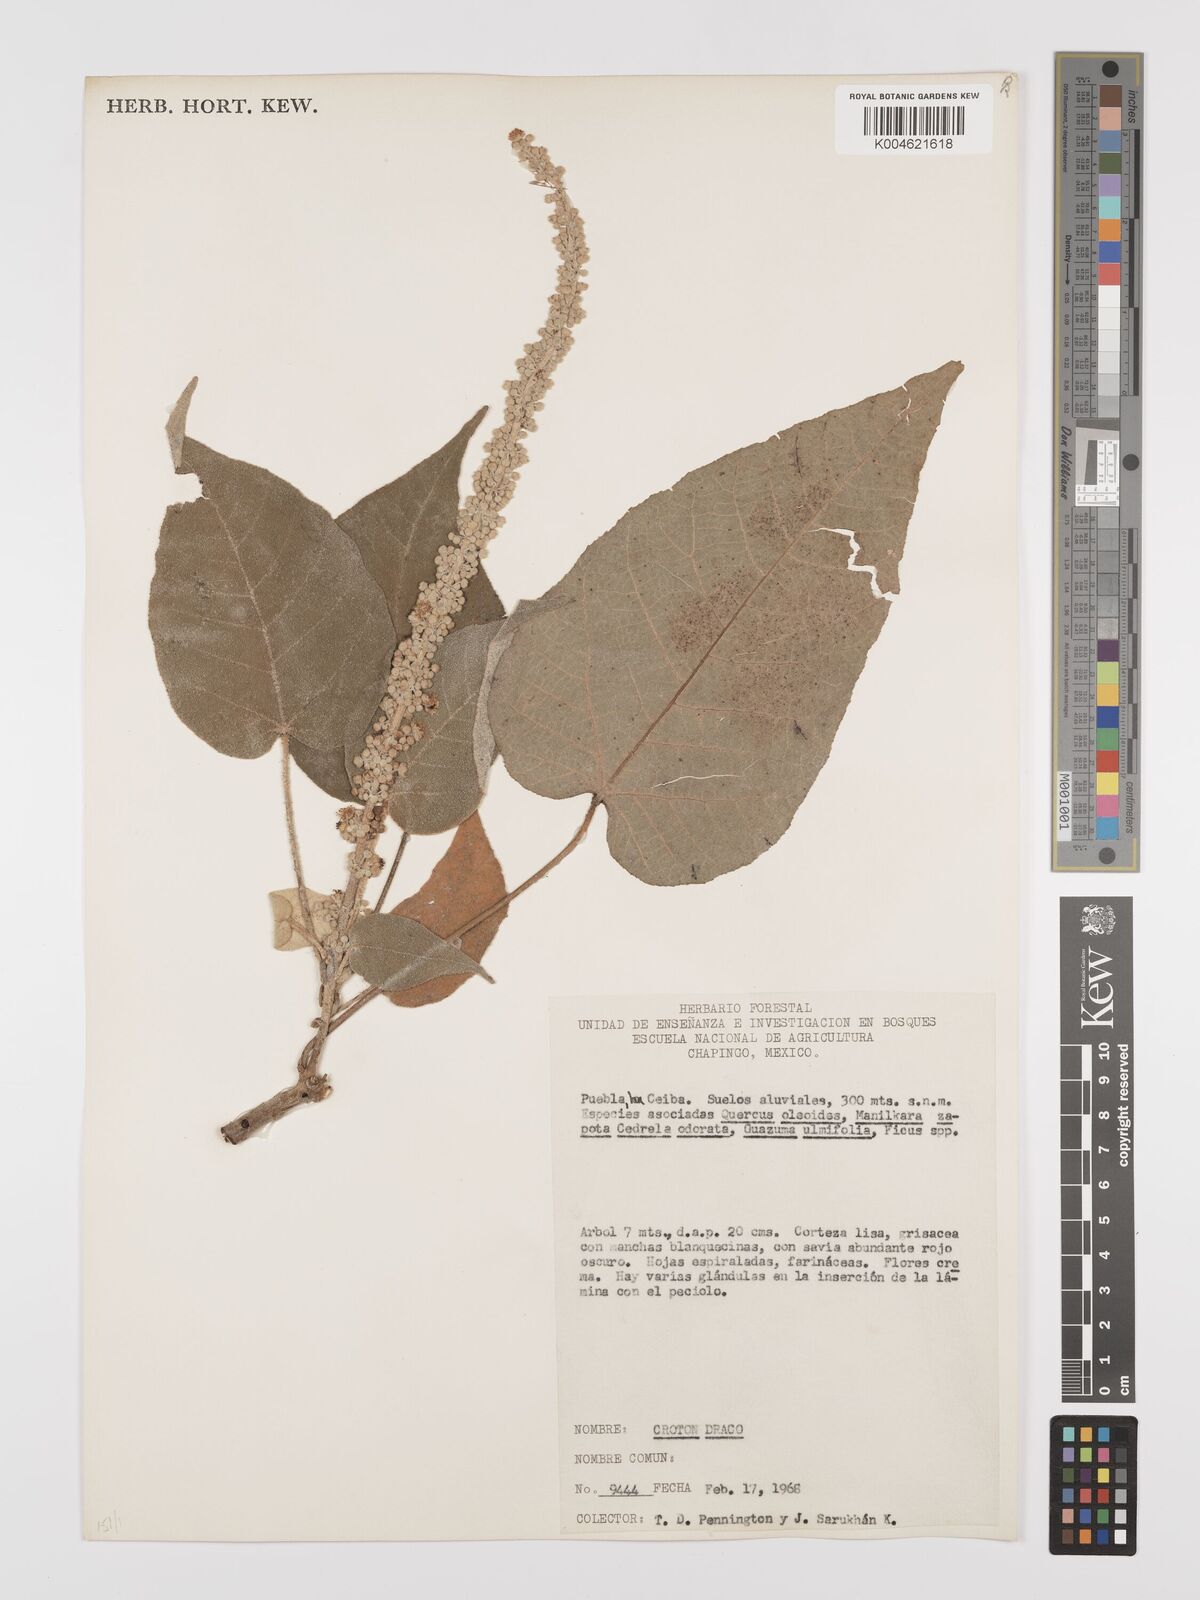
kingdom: Plantae
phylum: Tracheophyta
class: Magnoliopsida
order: Malpighiales
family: Euphorbiaceae
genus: Croton
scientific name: Croton draco
